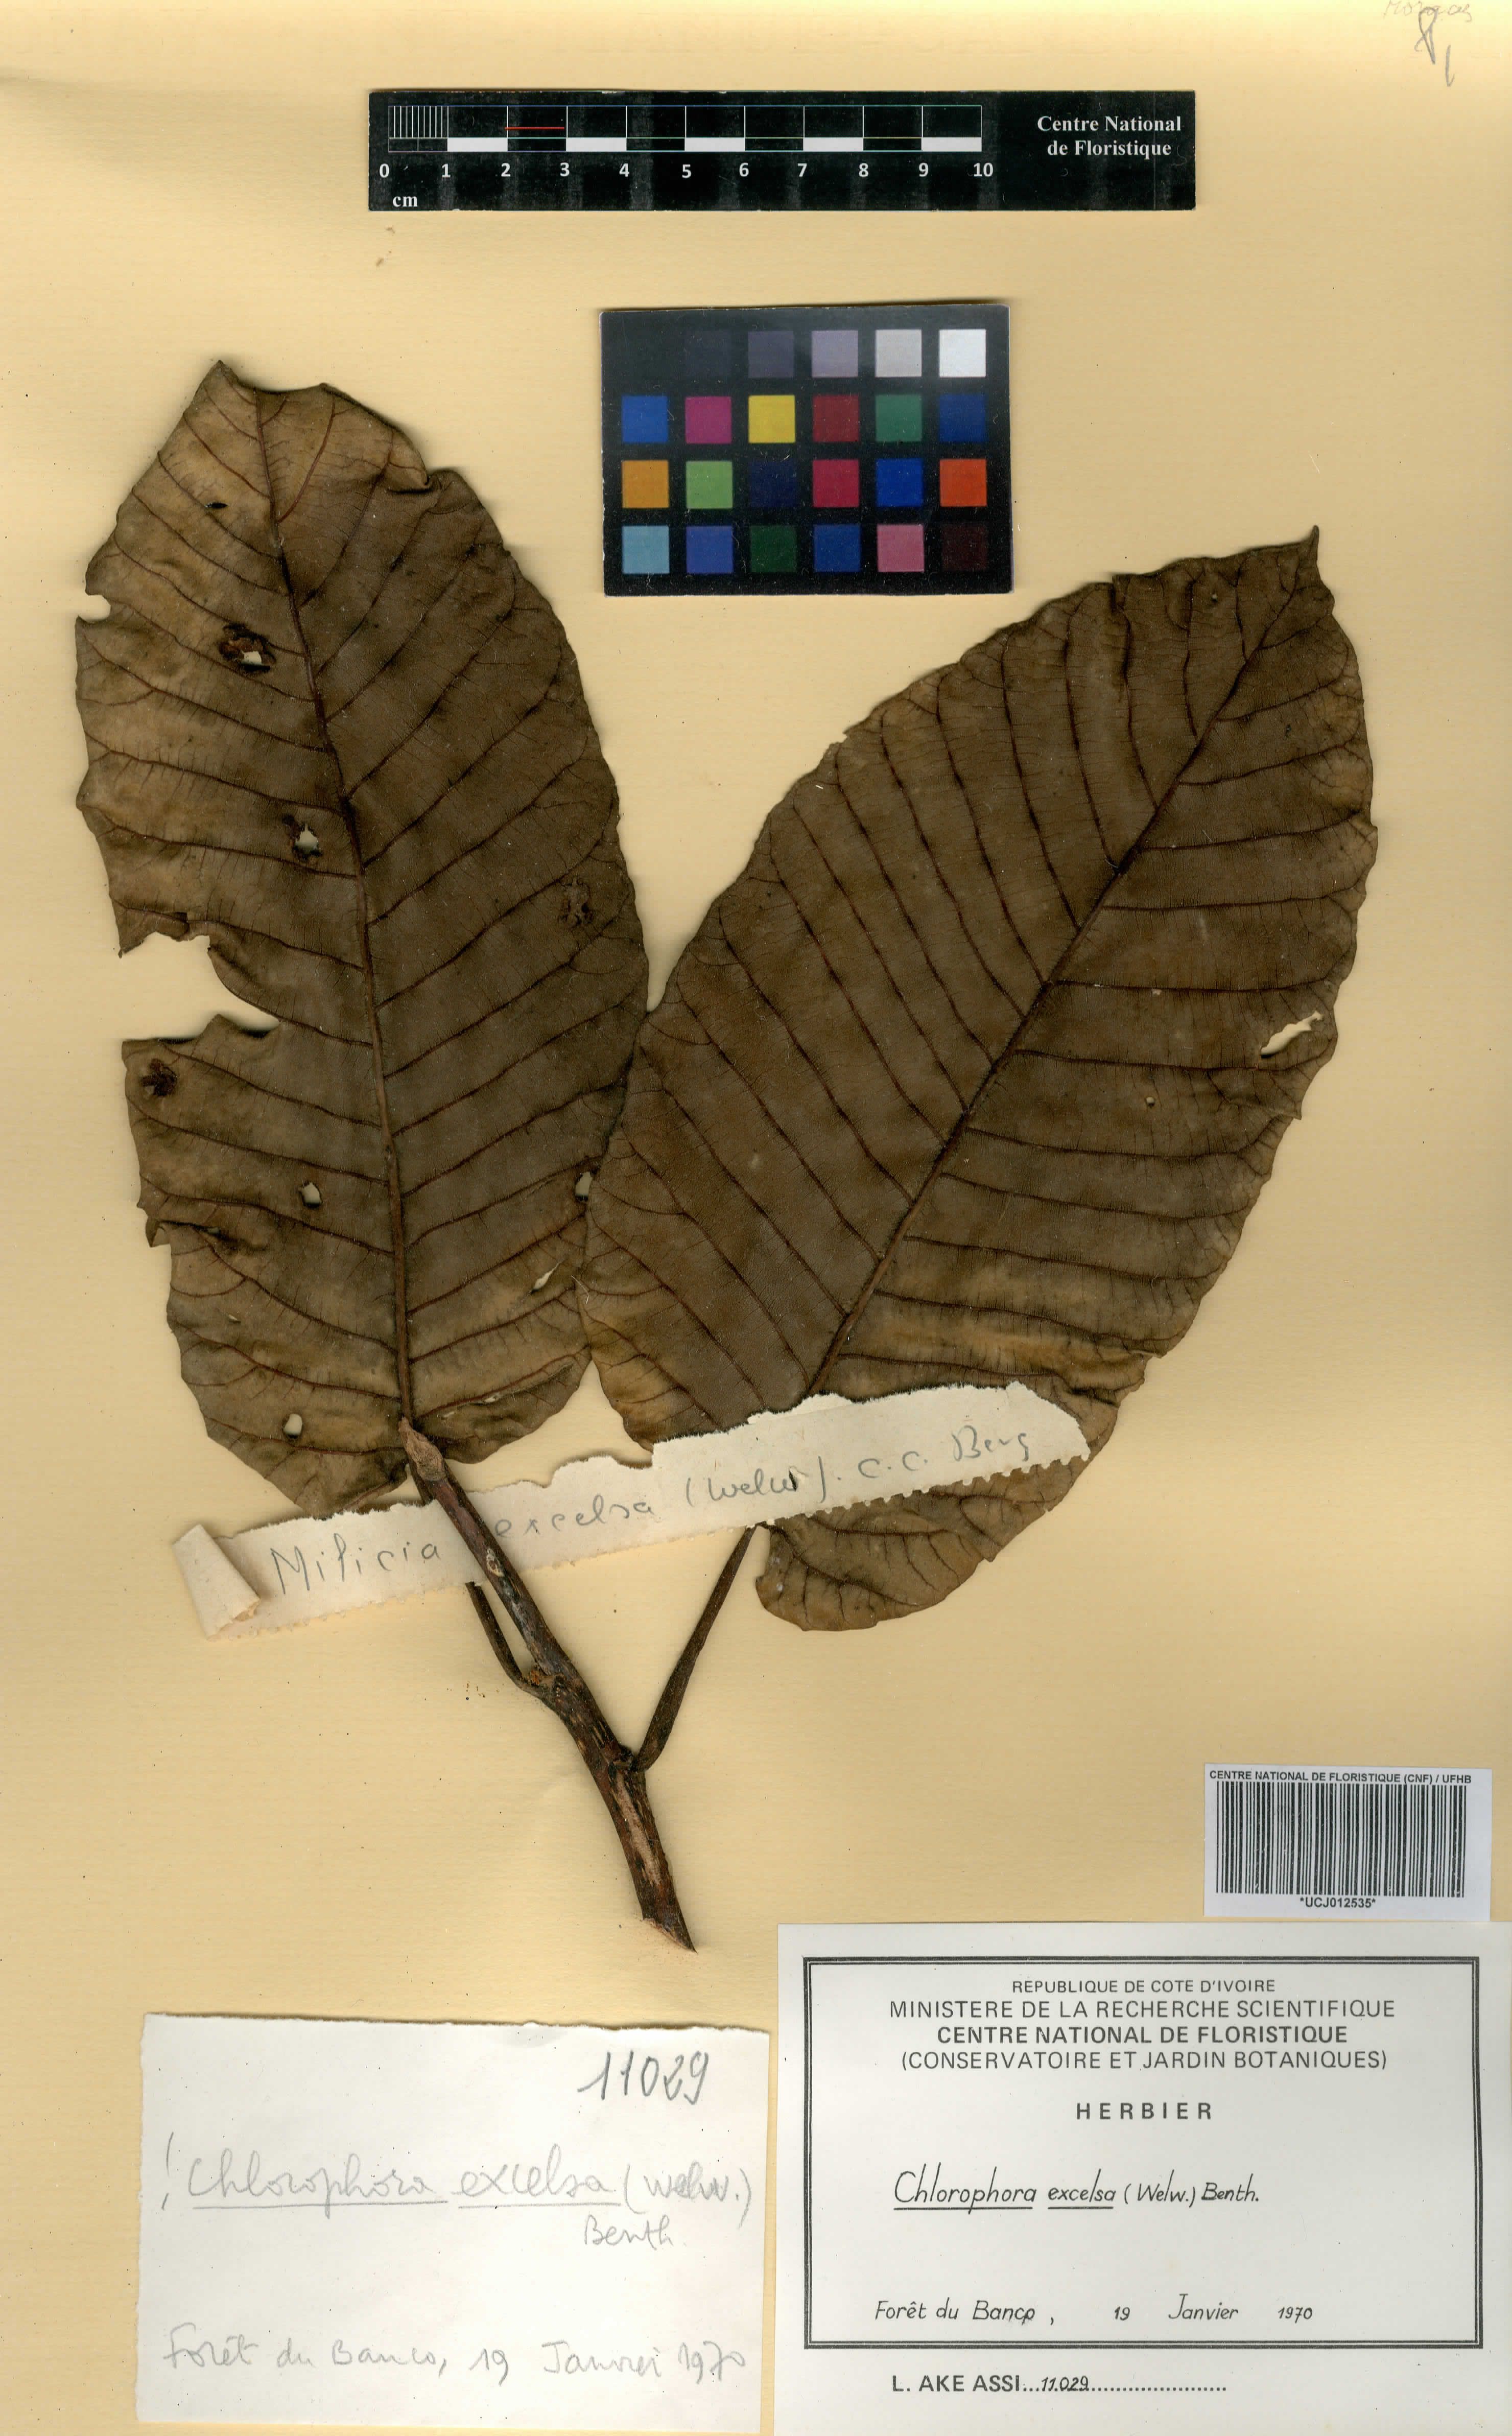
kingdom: Plantae
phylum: Tracheophyta
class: Magnoliopsida
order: Rosales
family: Moraceae
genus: Milicia
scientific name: Milicia excelsa
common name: African teak
